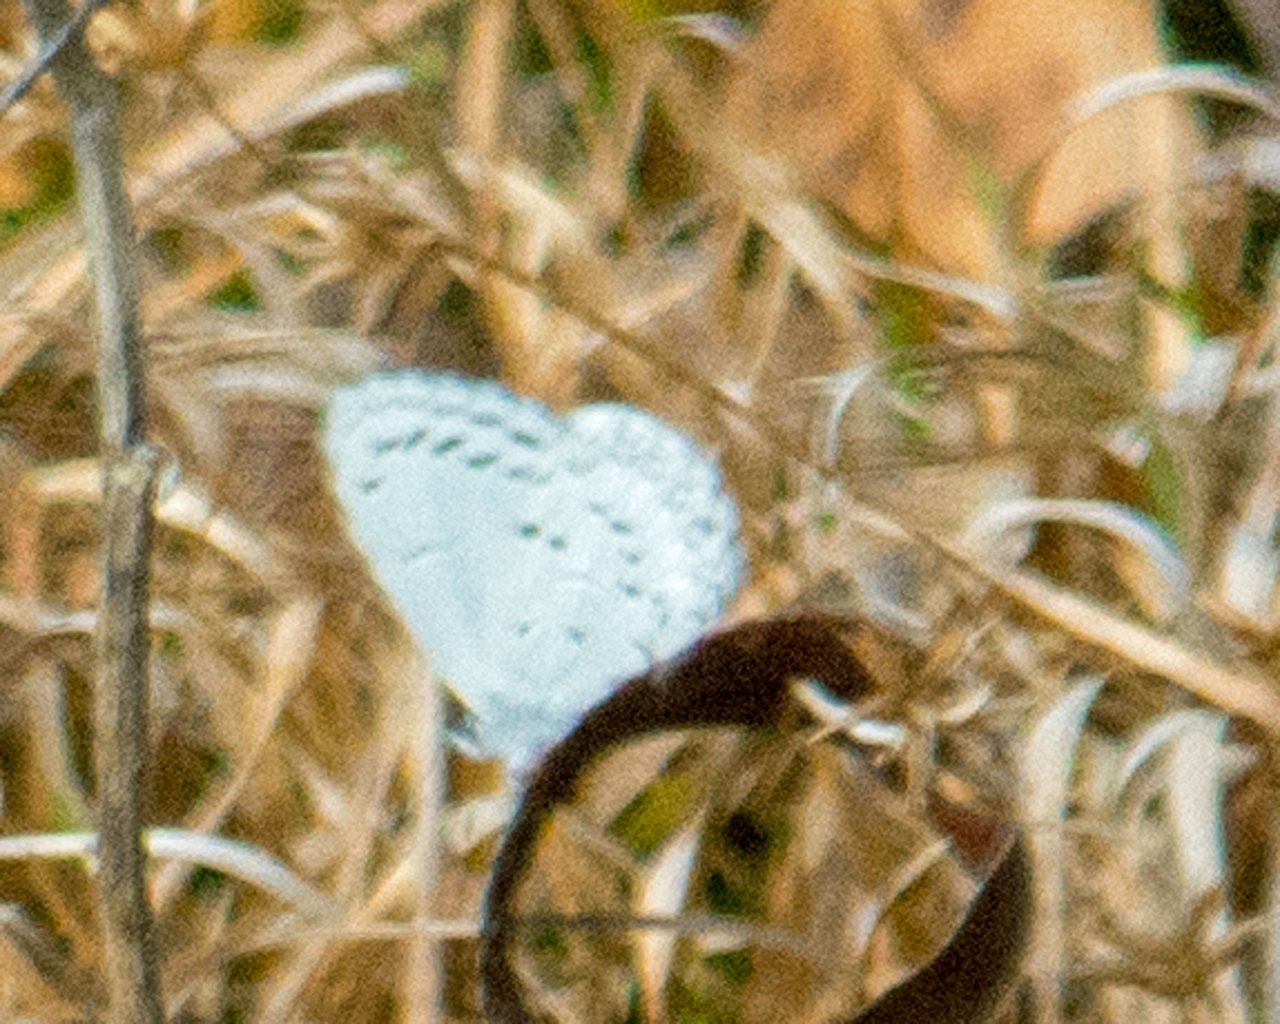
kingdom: Animalia
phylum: Arthropoda
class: Insecta
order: Lepidoptera
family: Lycaenidae
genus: Celastrina
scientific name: Celastrina
